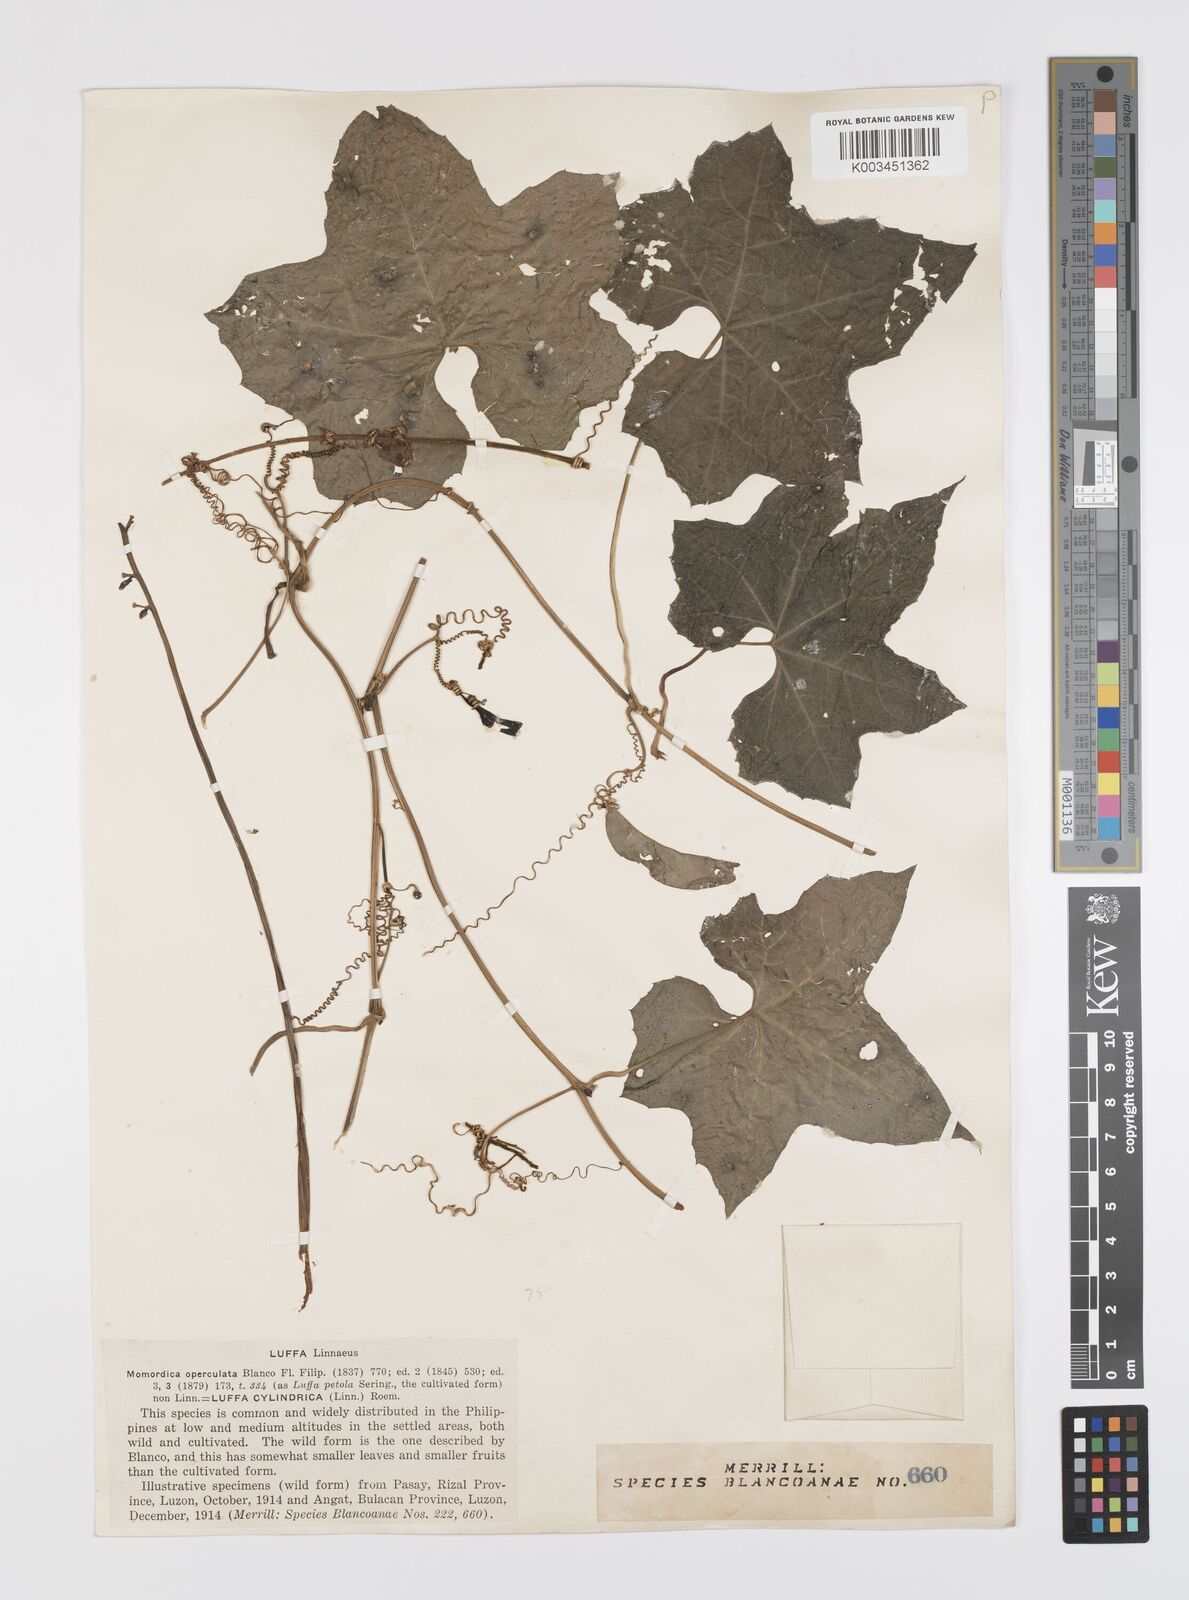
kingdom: Plantae
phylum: Tracheophyta
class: Magnoliopsida
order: Cucurbitales
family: Cucurbitaceae
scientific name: Cucurbitaceae
